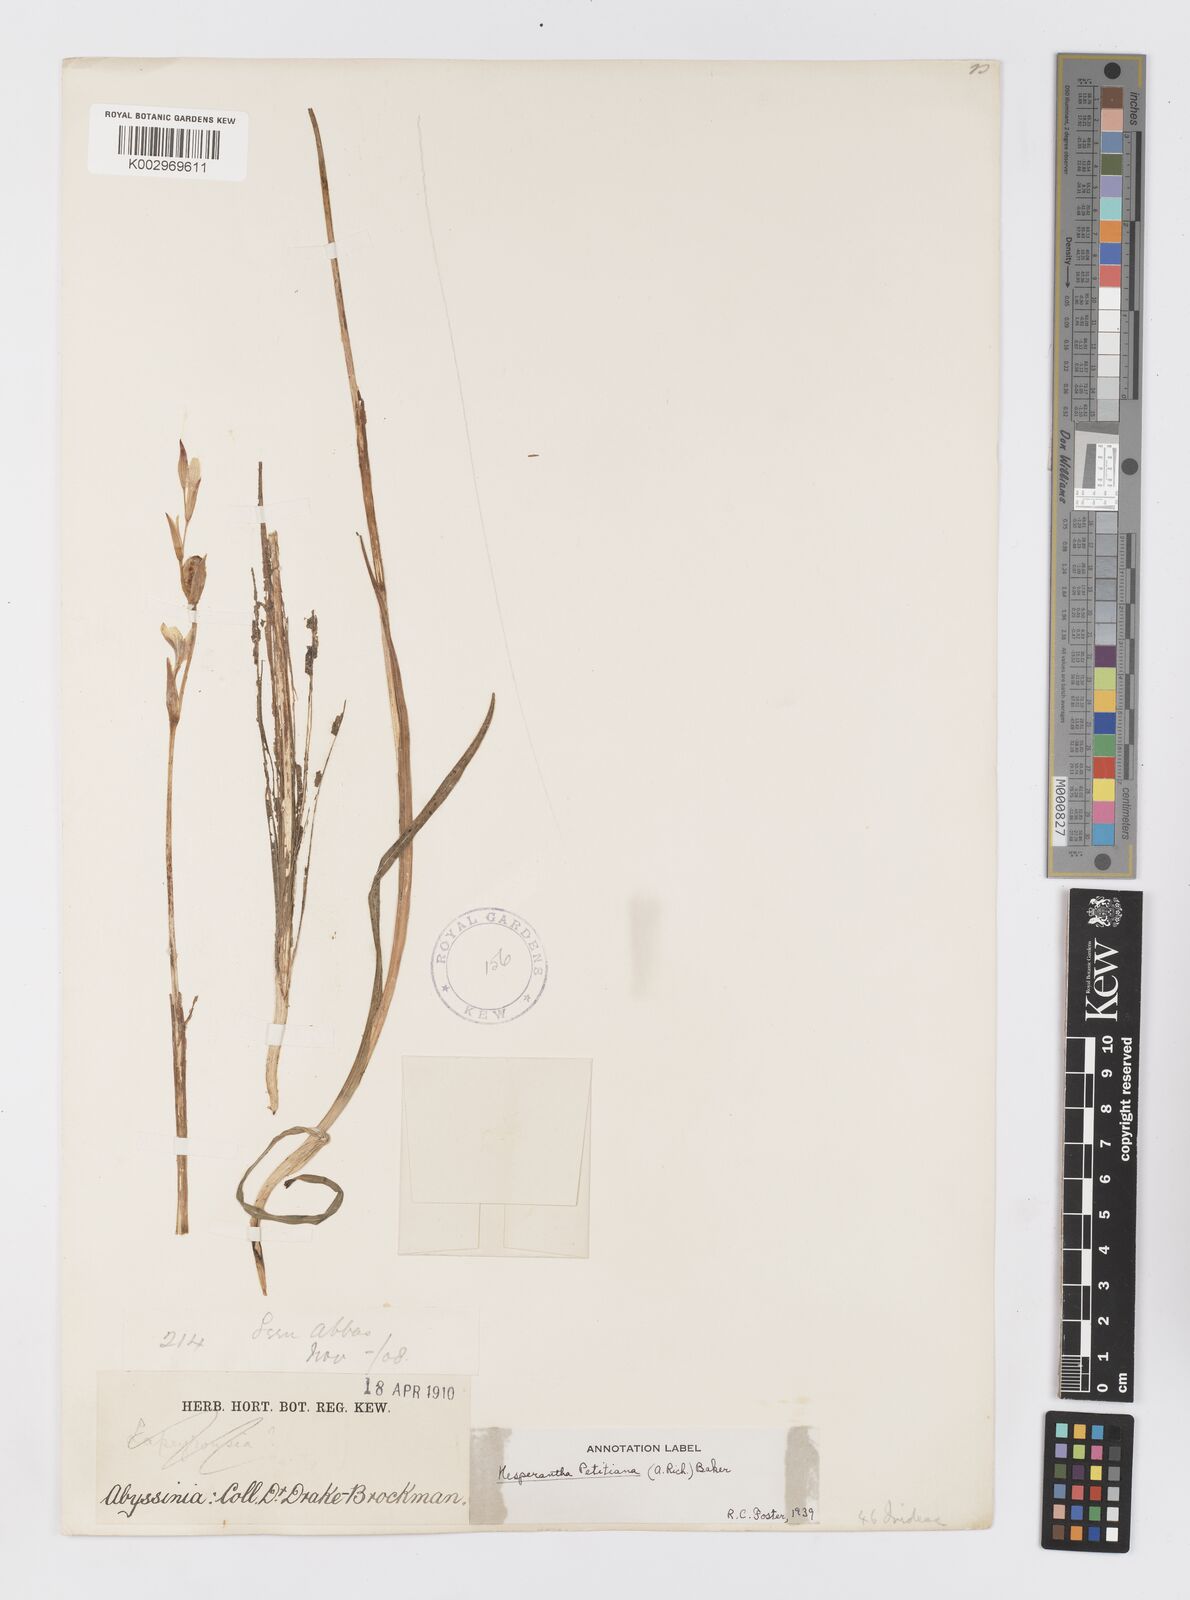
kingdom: Plantae
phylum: Tracheophyta
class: Liliopsida
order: Asparagales
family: Iridaceae
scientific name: Iridaceae
